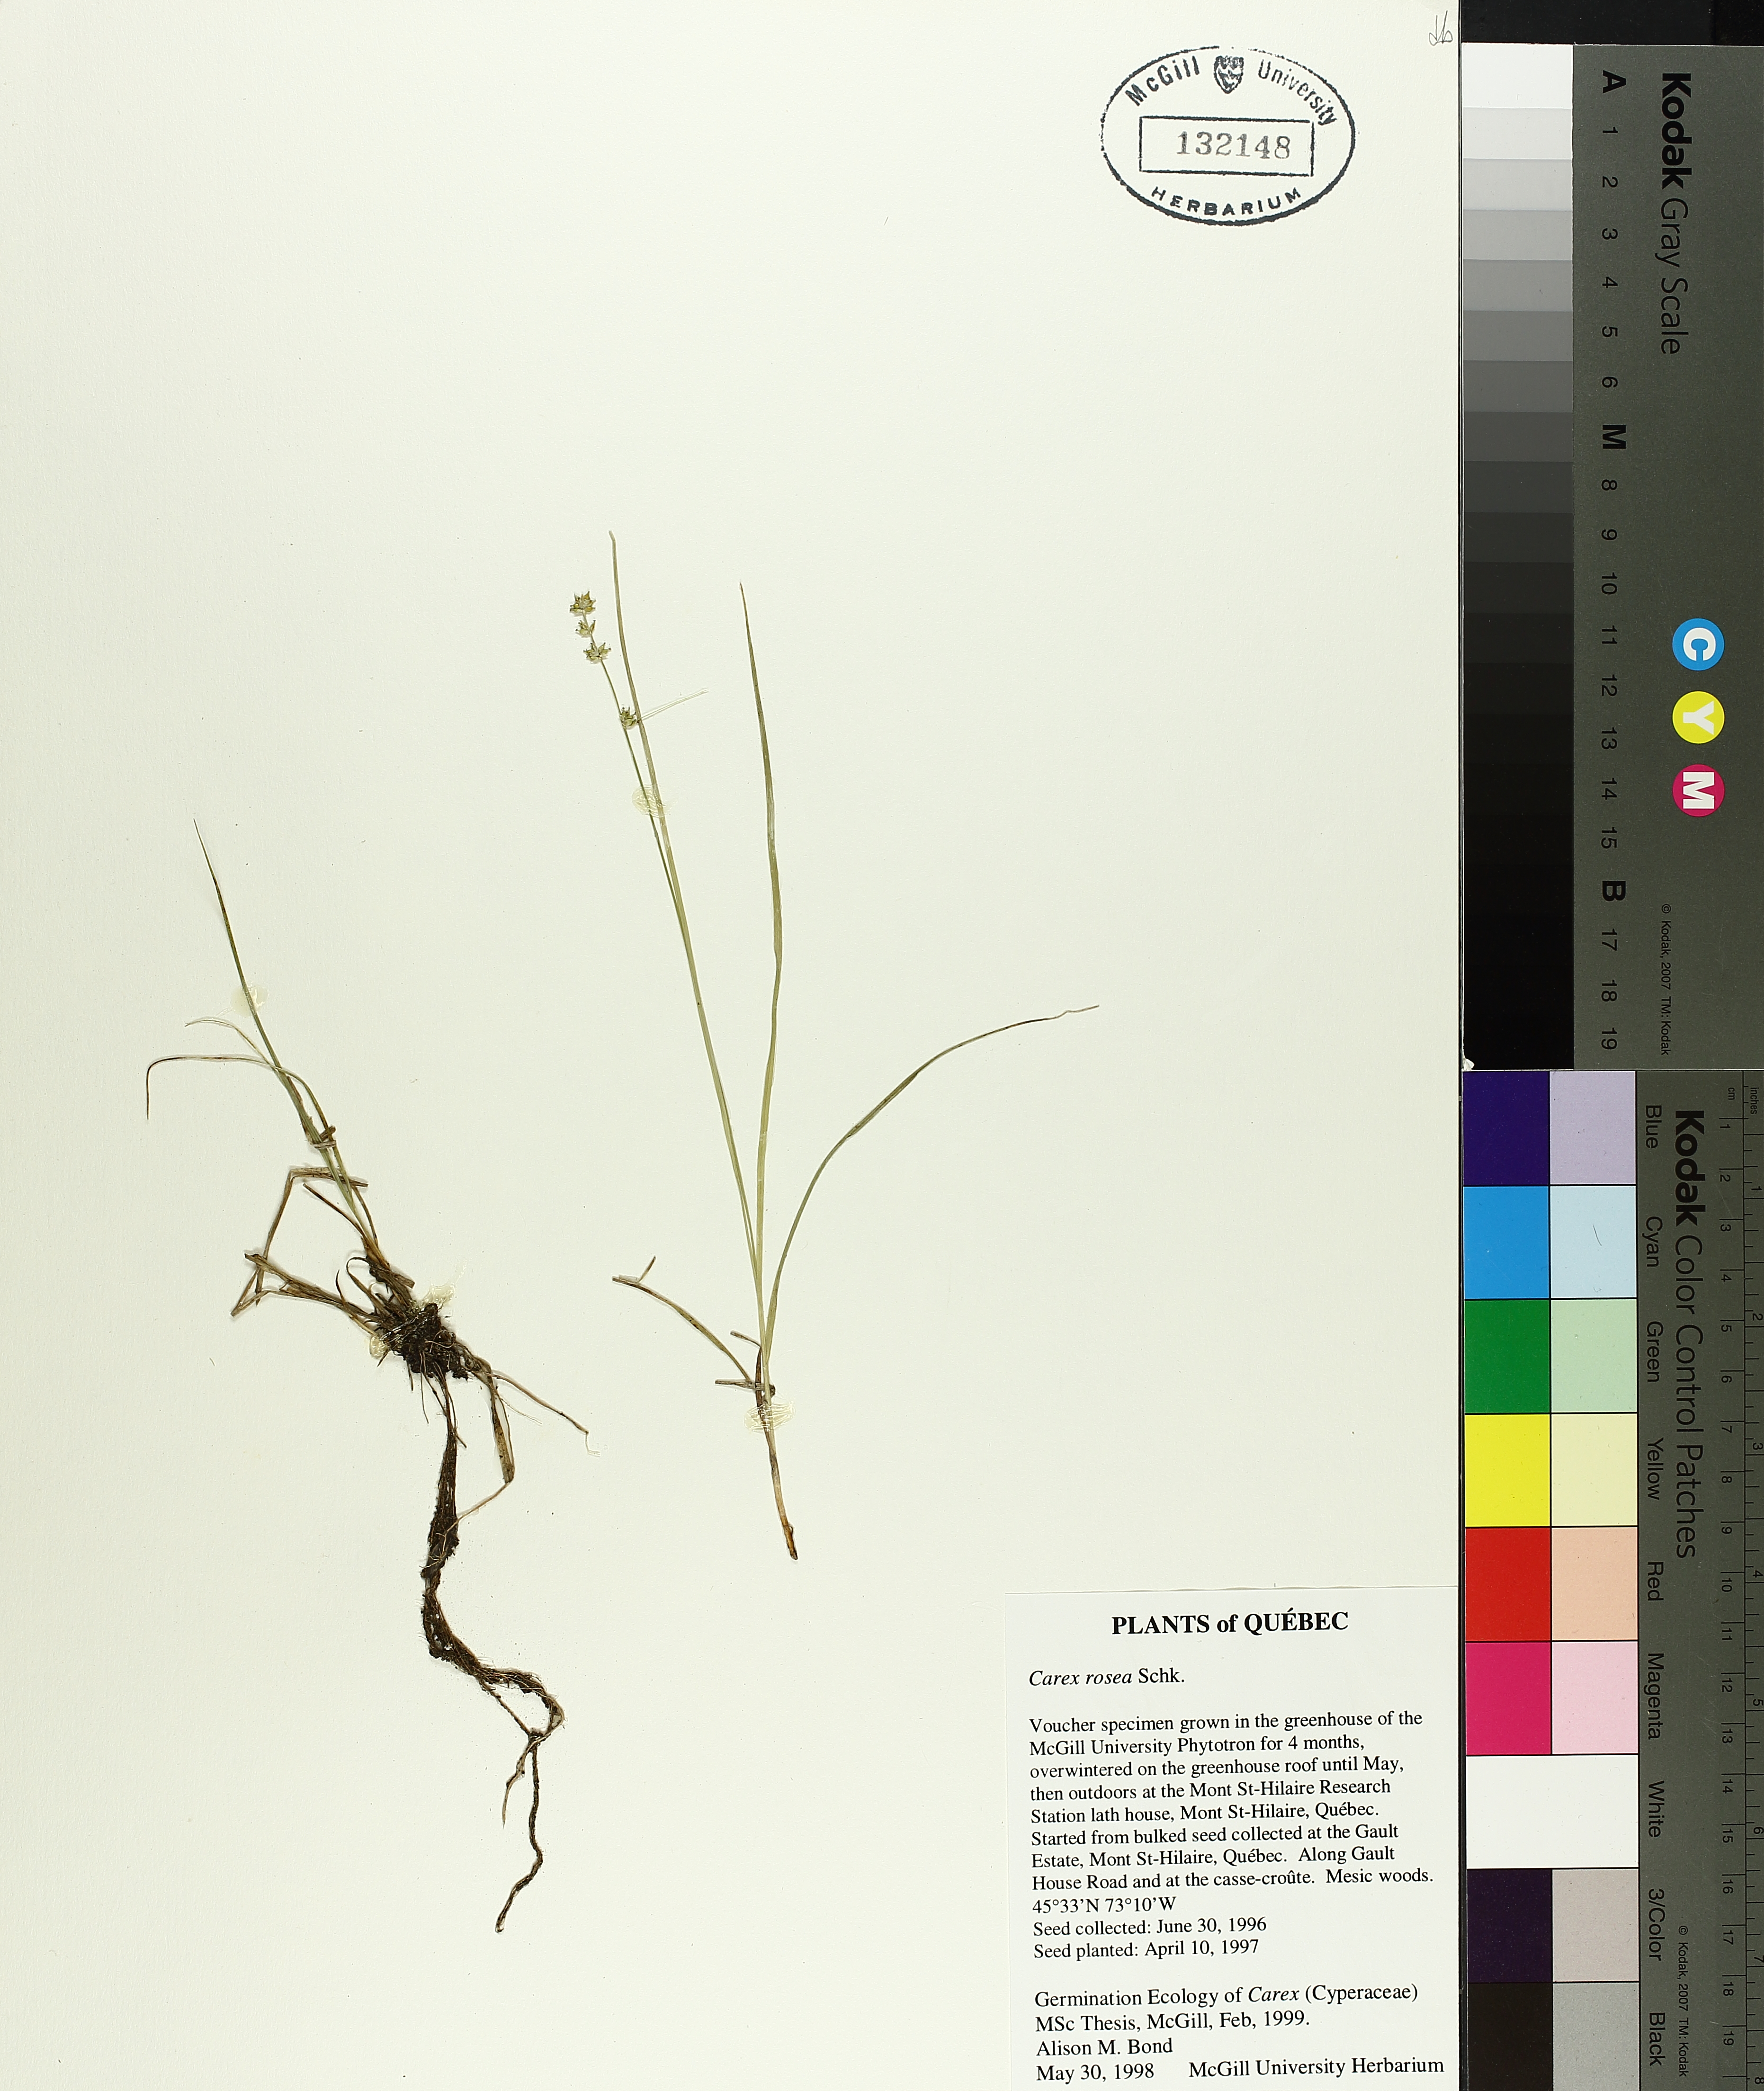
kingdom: Plantae
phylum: Tracheophyta
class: Liliopsida
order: Poales
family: Cyperaceae
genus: Carex
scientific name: Carex rosea
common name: Curly-styled wood sedge
